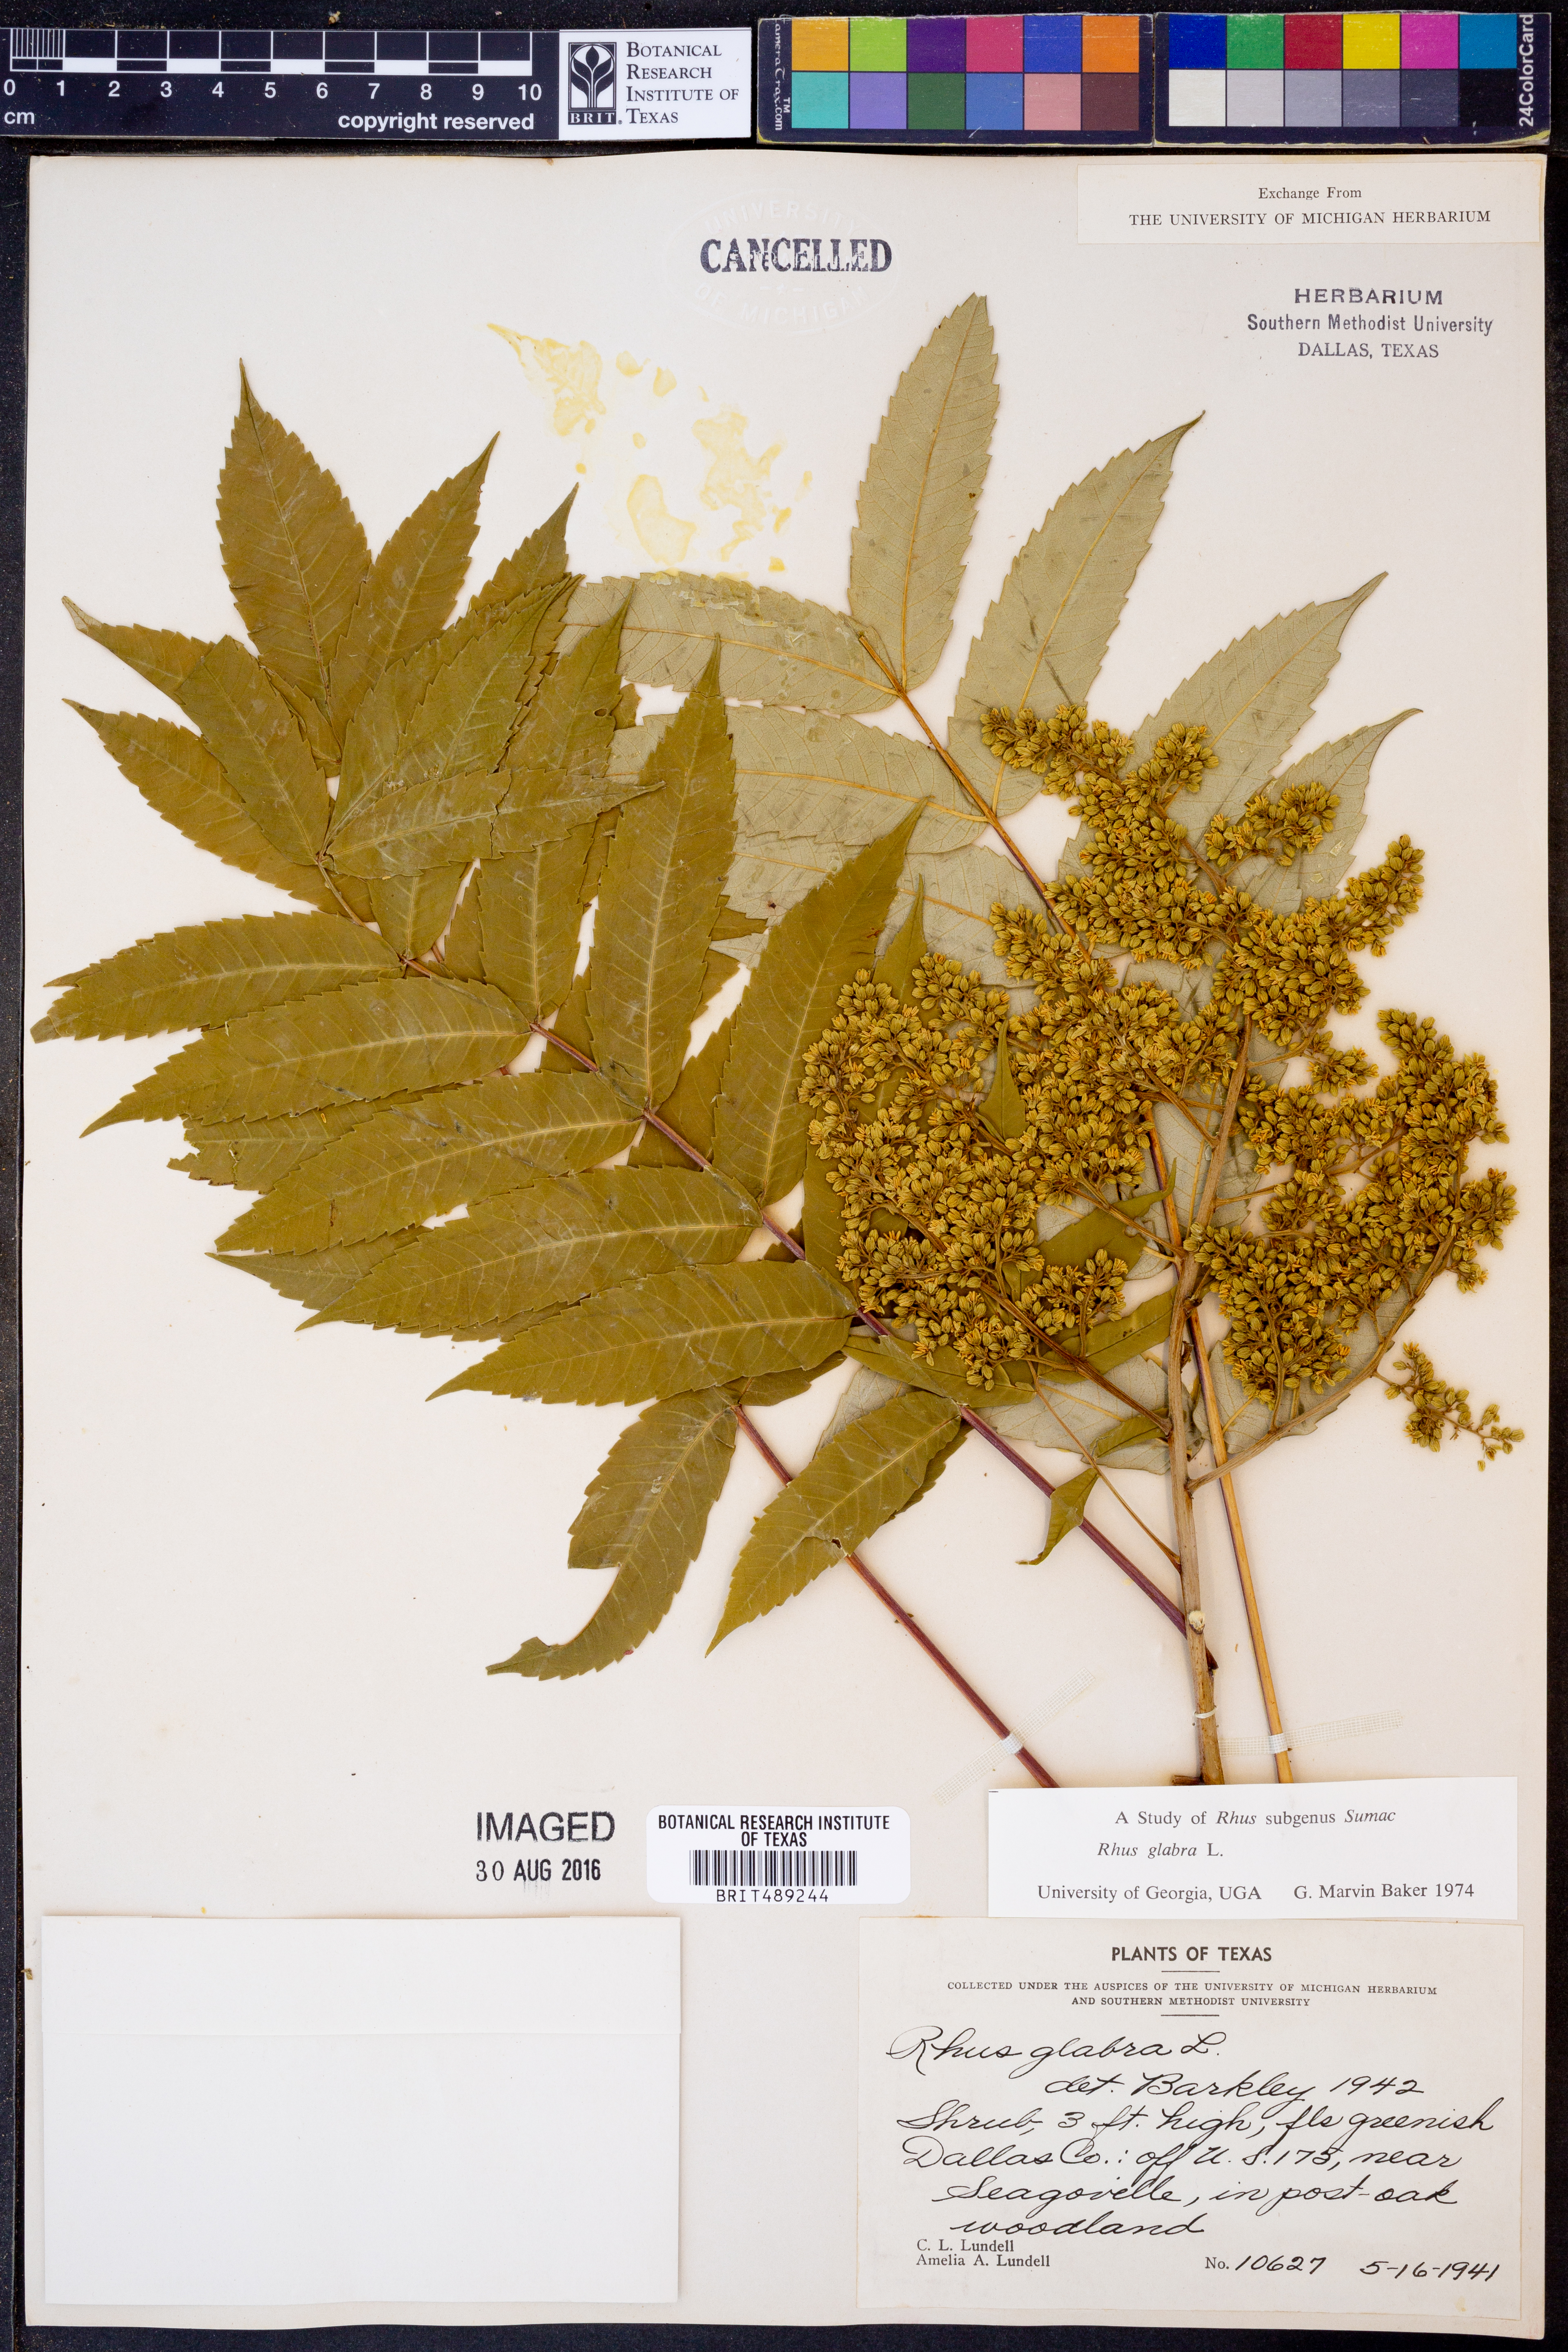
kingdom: Plantae
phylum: Tracheophyta
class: Magnoliopsida
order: Sapindales
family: Anacardiaceae
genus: Rhus
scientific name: Rhus glabra
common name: Scarlet sumac
